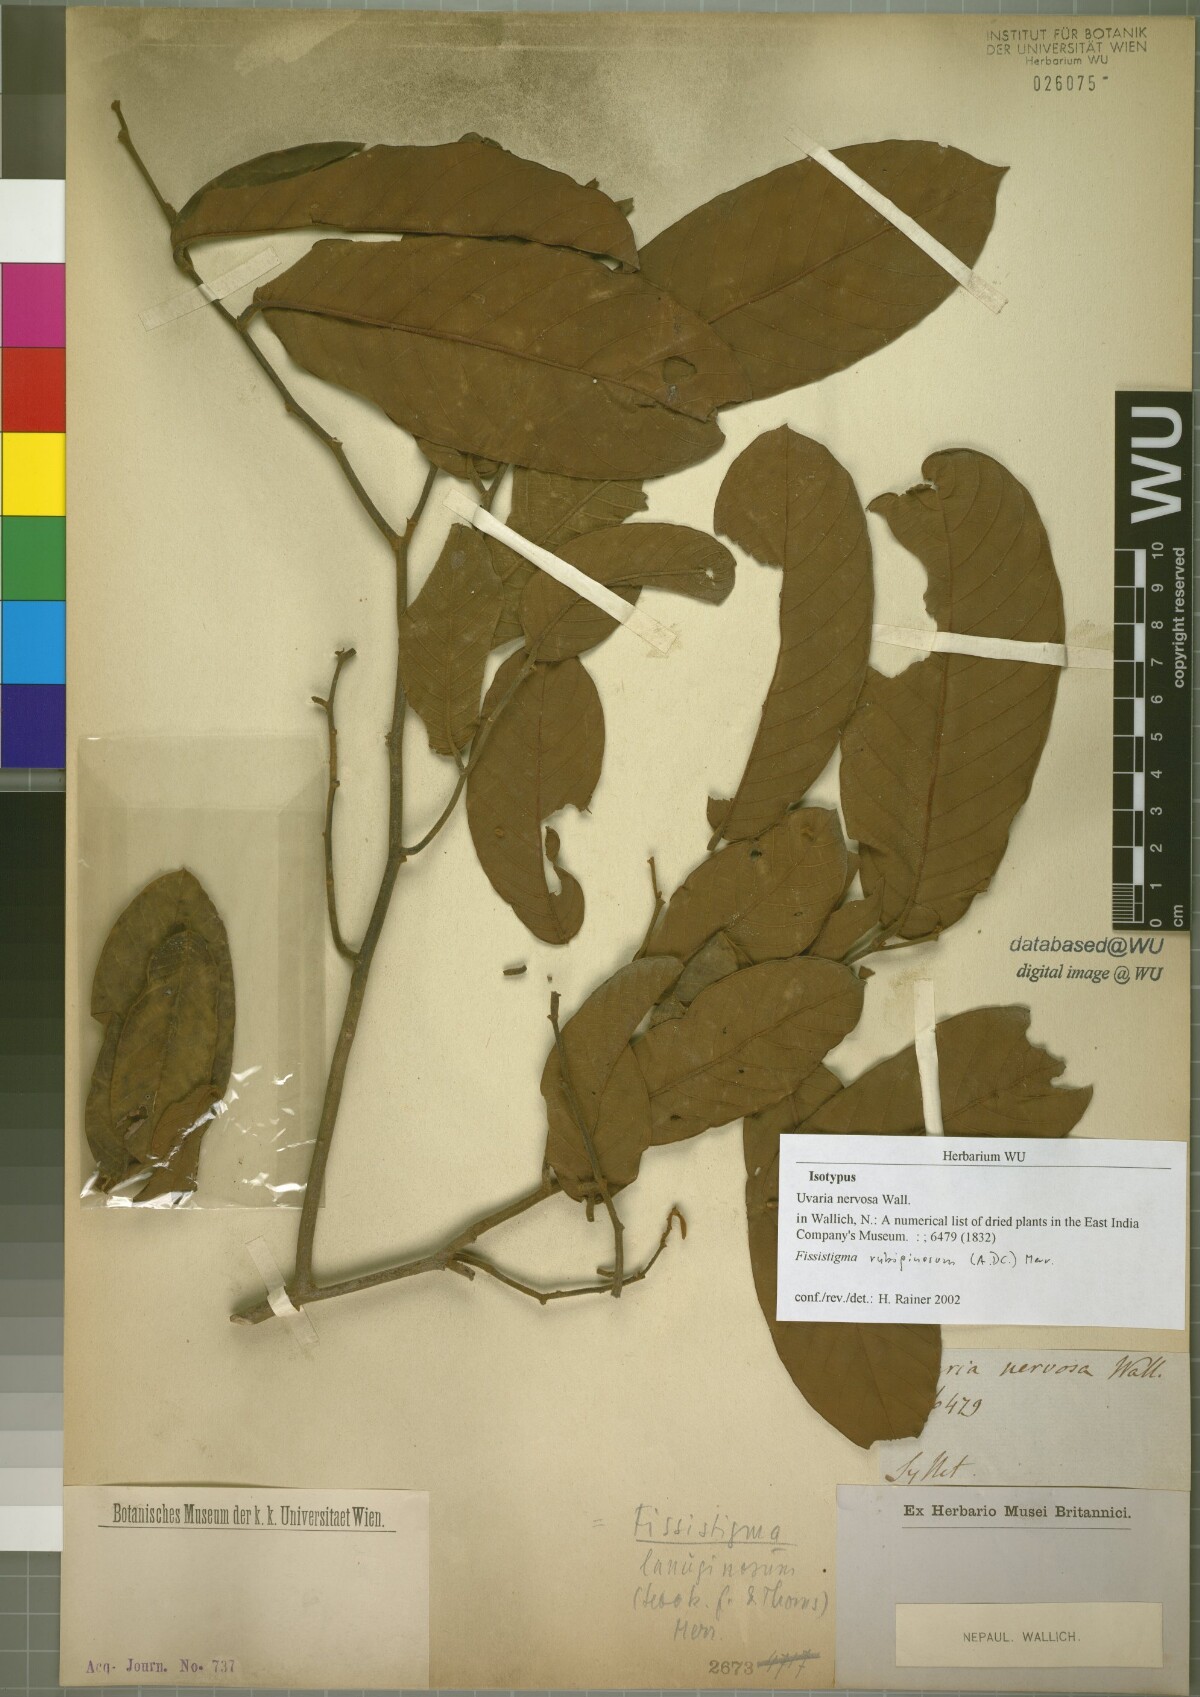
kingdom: Plantae
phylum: Tracheophyta
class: Magnoliopsida
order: Magnoliales
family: Annonaceae
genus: Fissistigma
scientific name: Fissistigma rubiginosum
